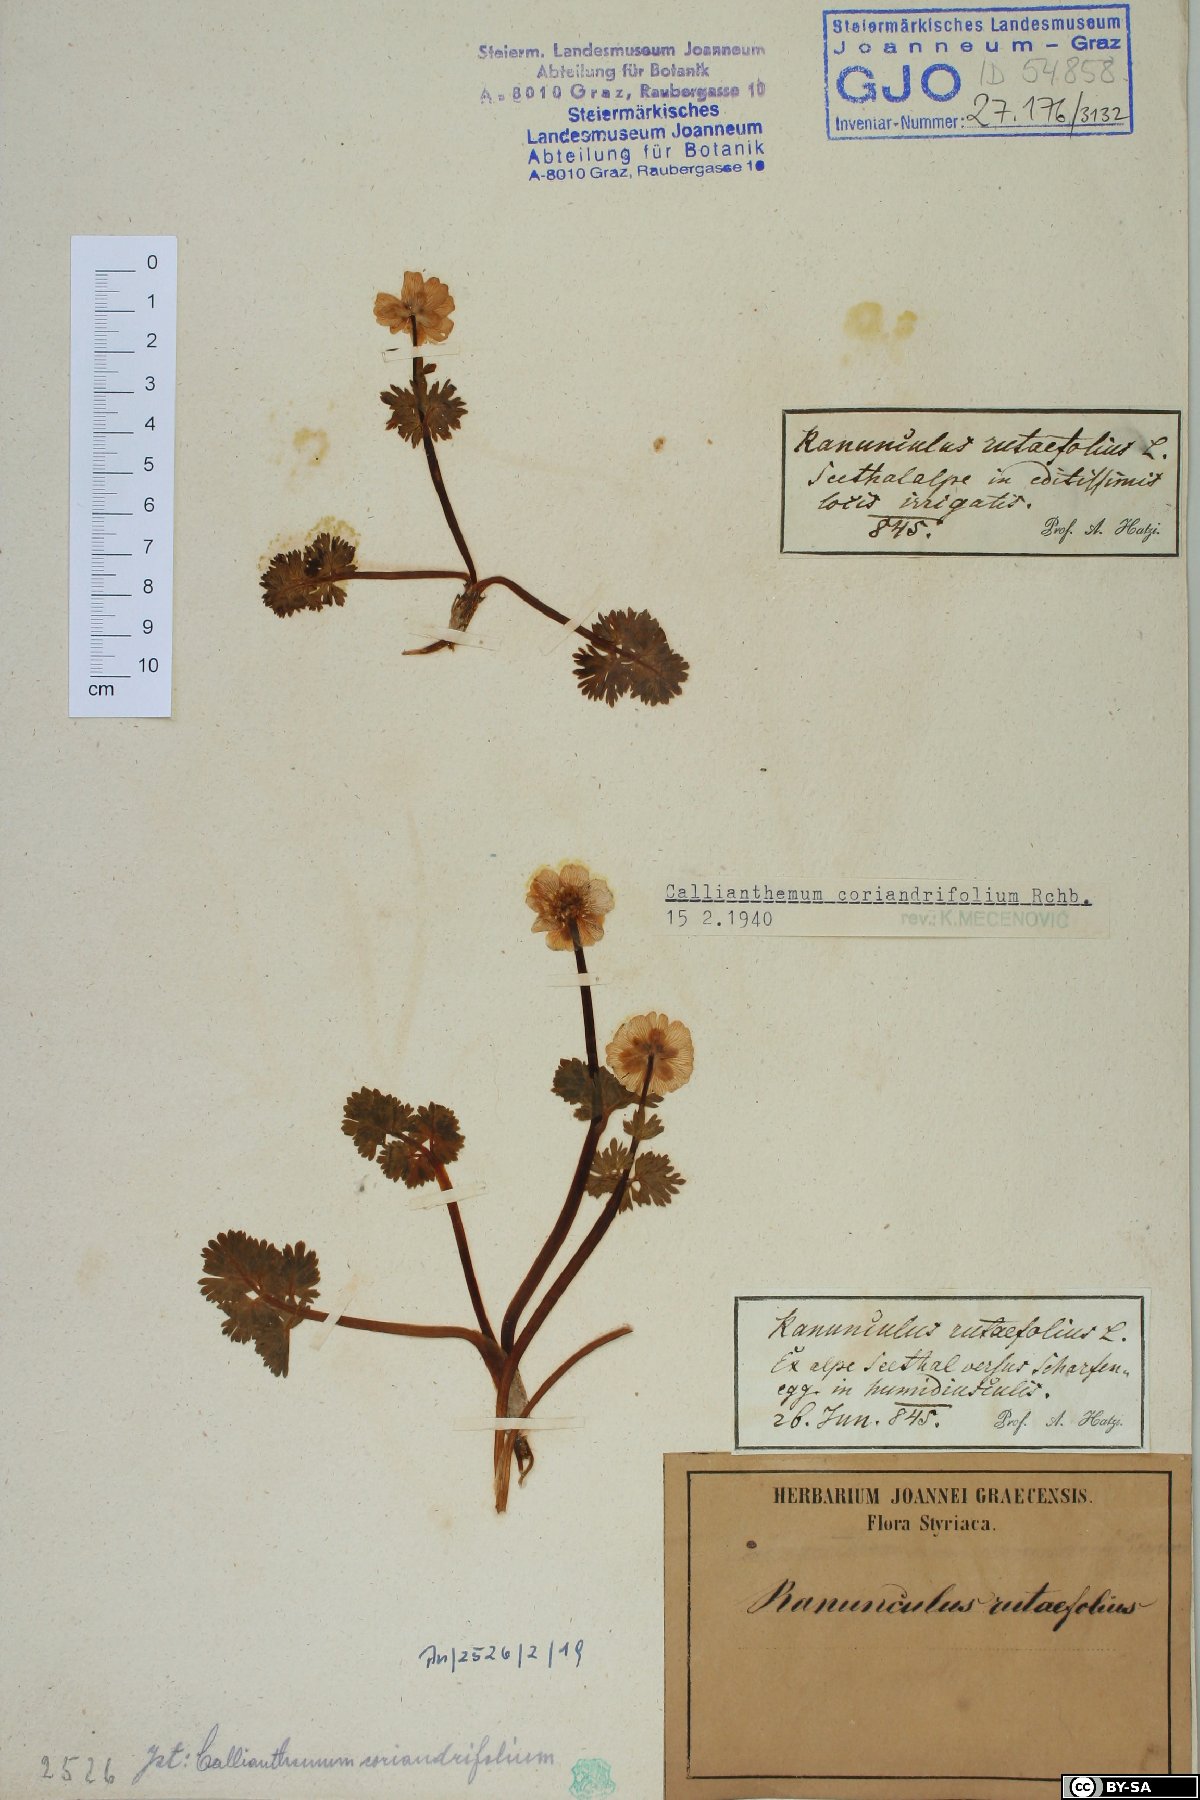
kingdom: Plantae
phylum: Tracheophyta
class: Magnoliopsida
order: Ranunculales
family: Ranunculaceae
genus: Callianthemum
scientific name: Callianthemum coriandrifolium
